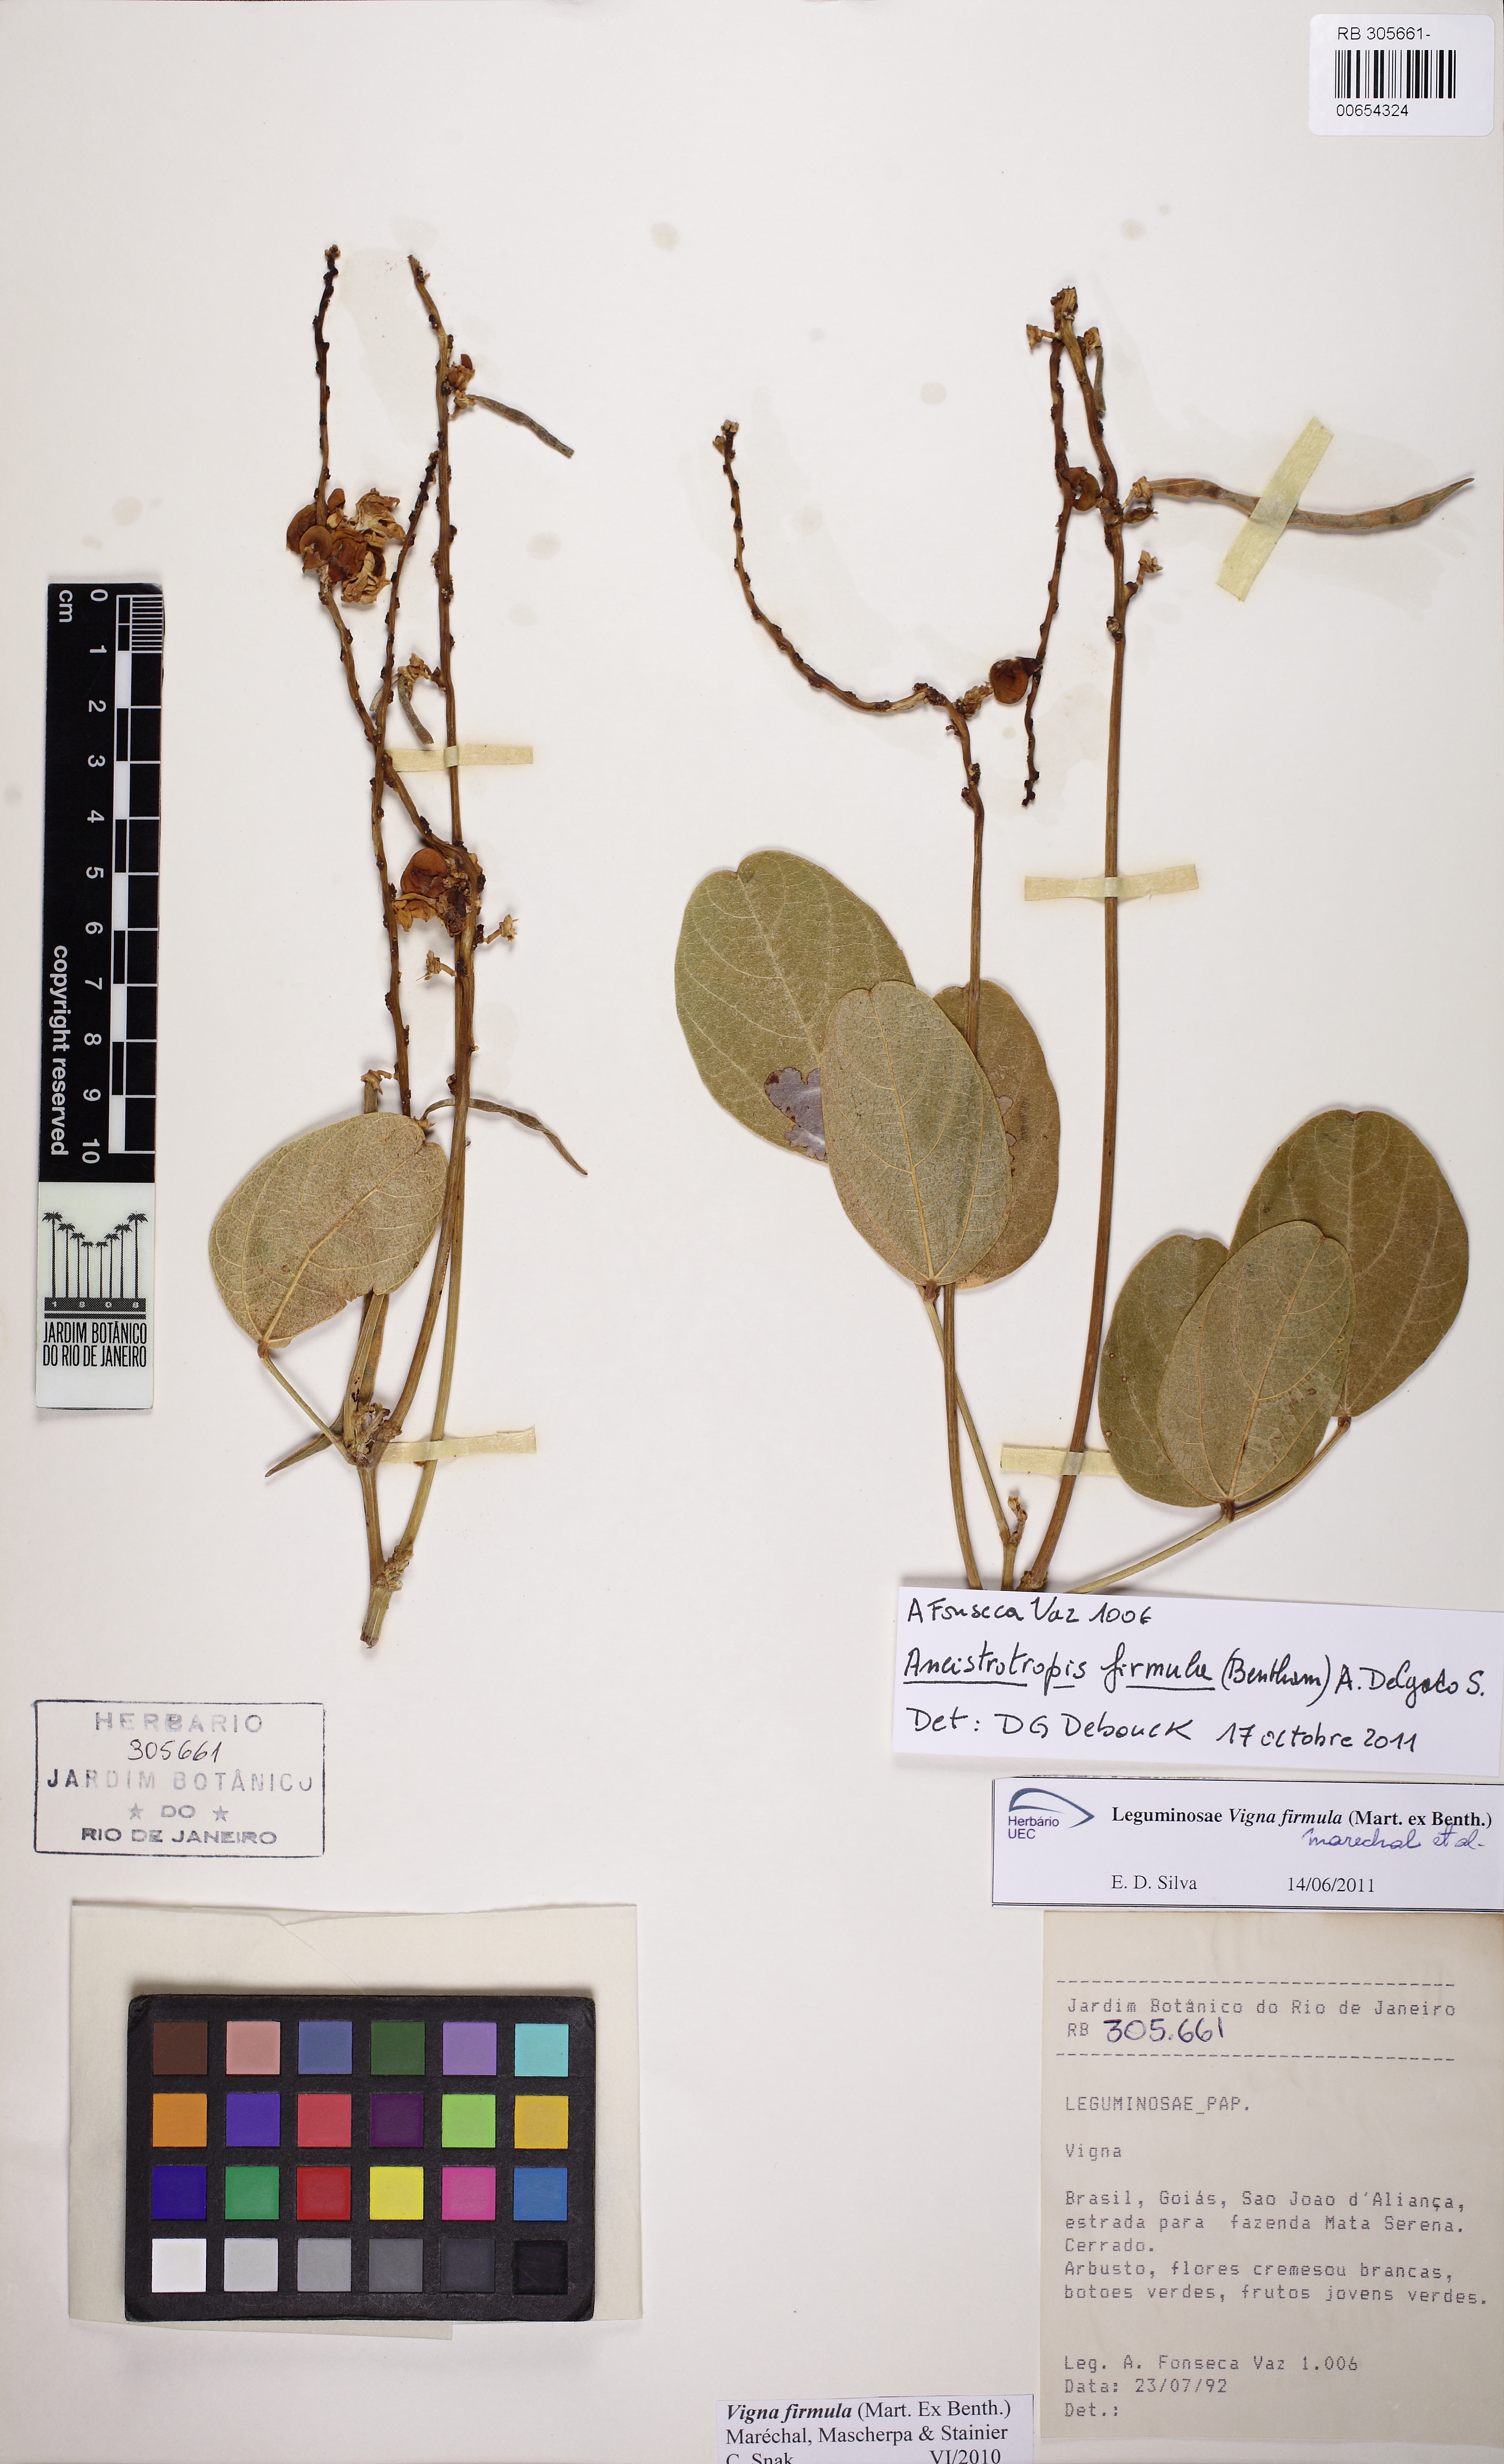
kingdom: Plantae
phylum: Tracheophyta
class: Magnoliopsida
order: Fabales
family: Fabaceae
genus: Ancistrotropis
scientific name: Ancistrotropis firmula
